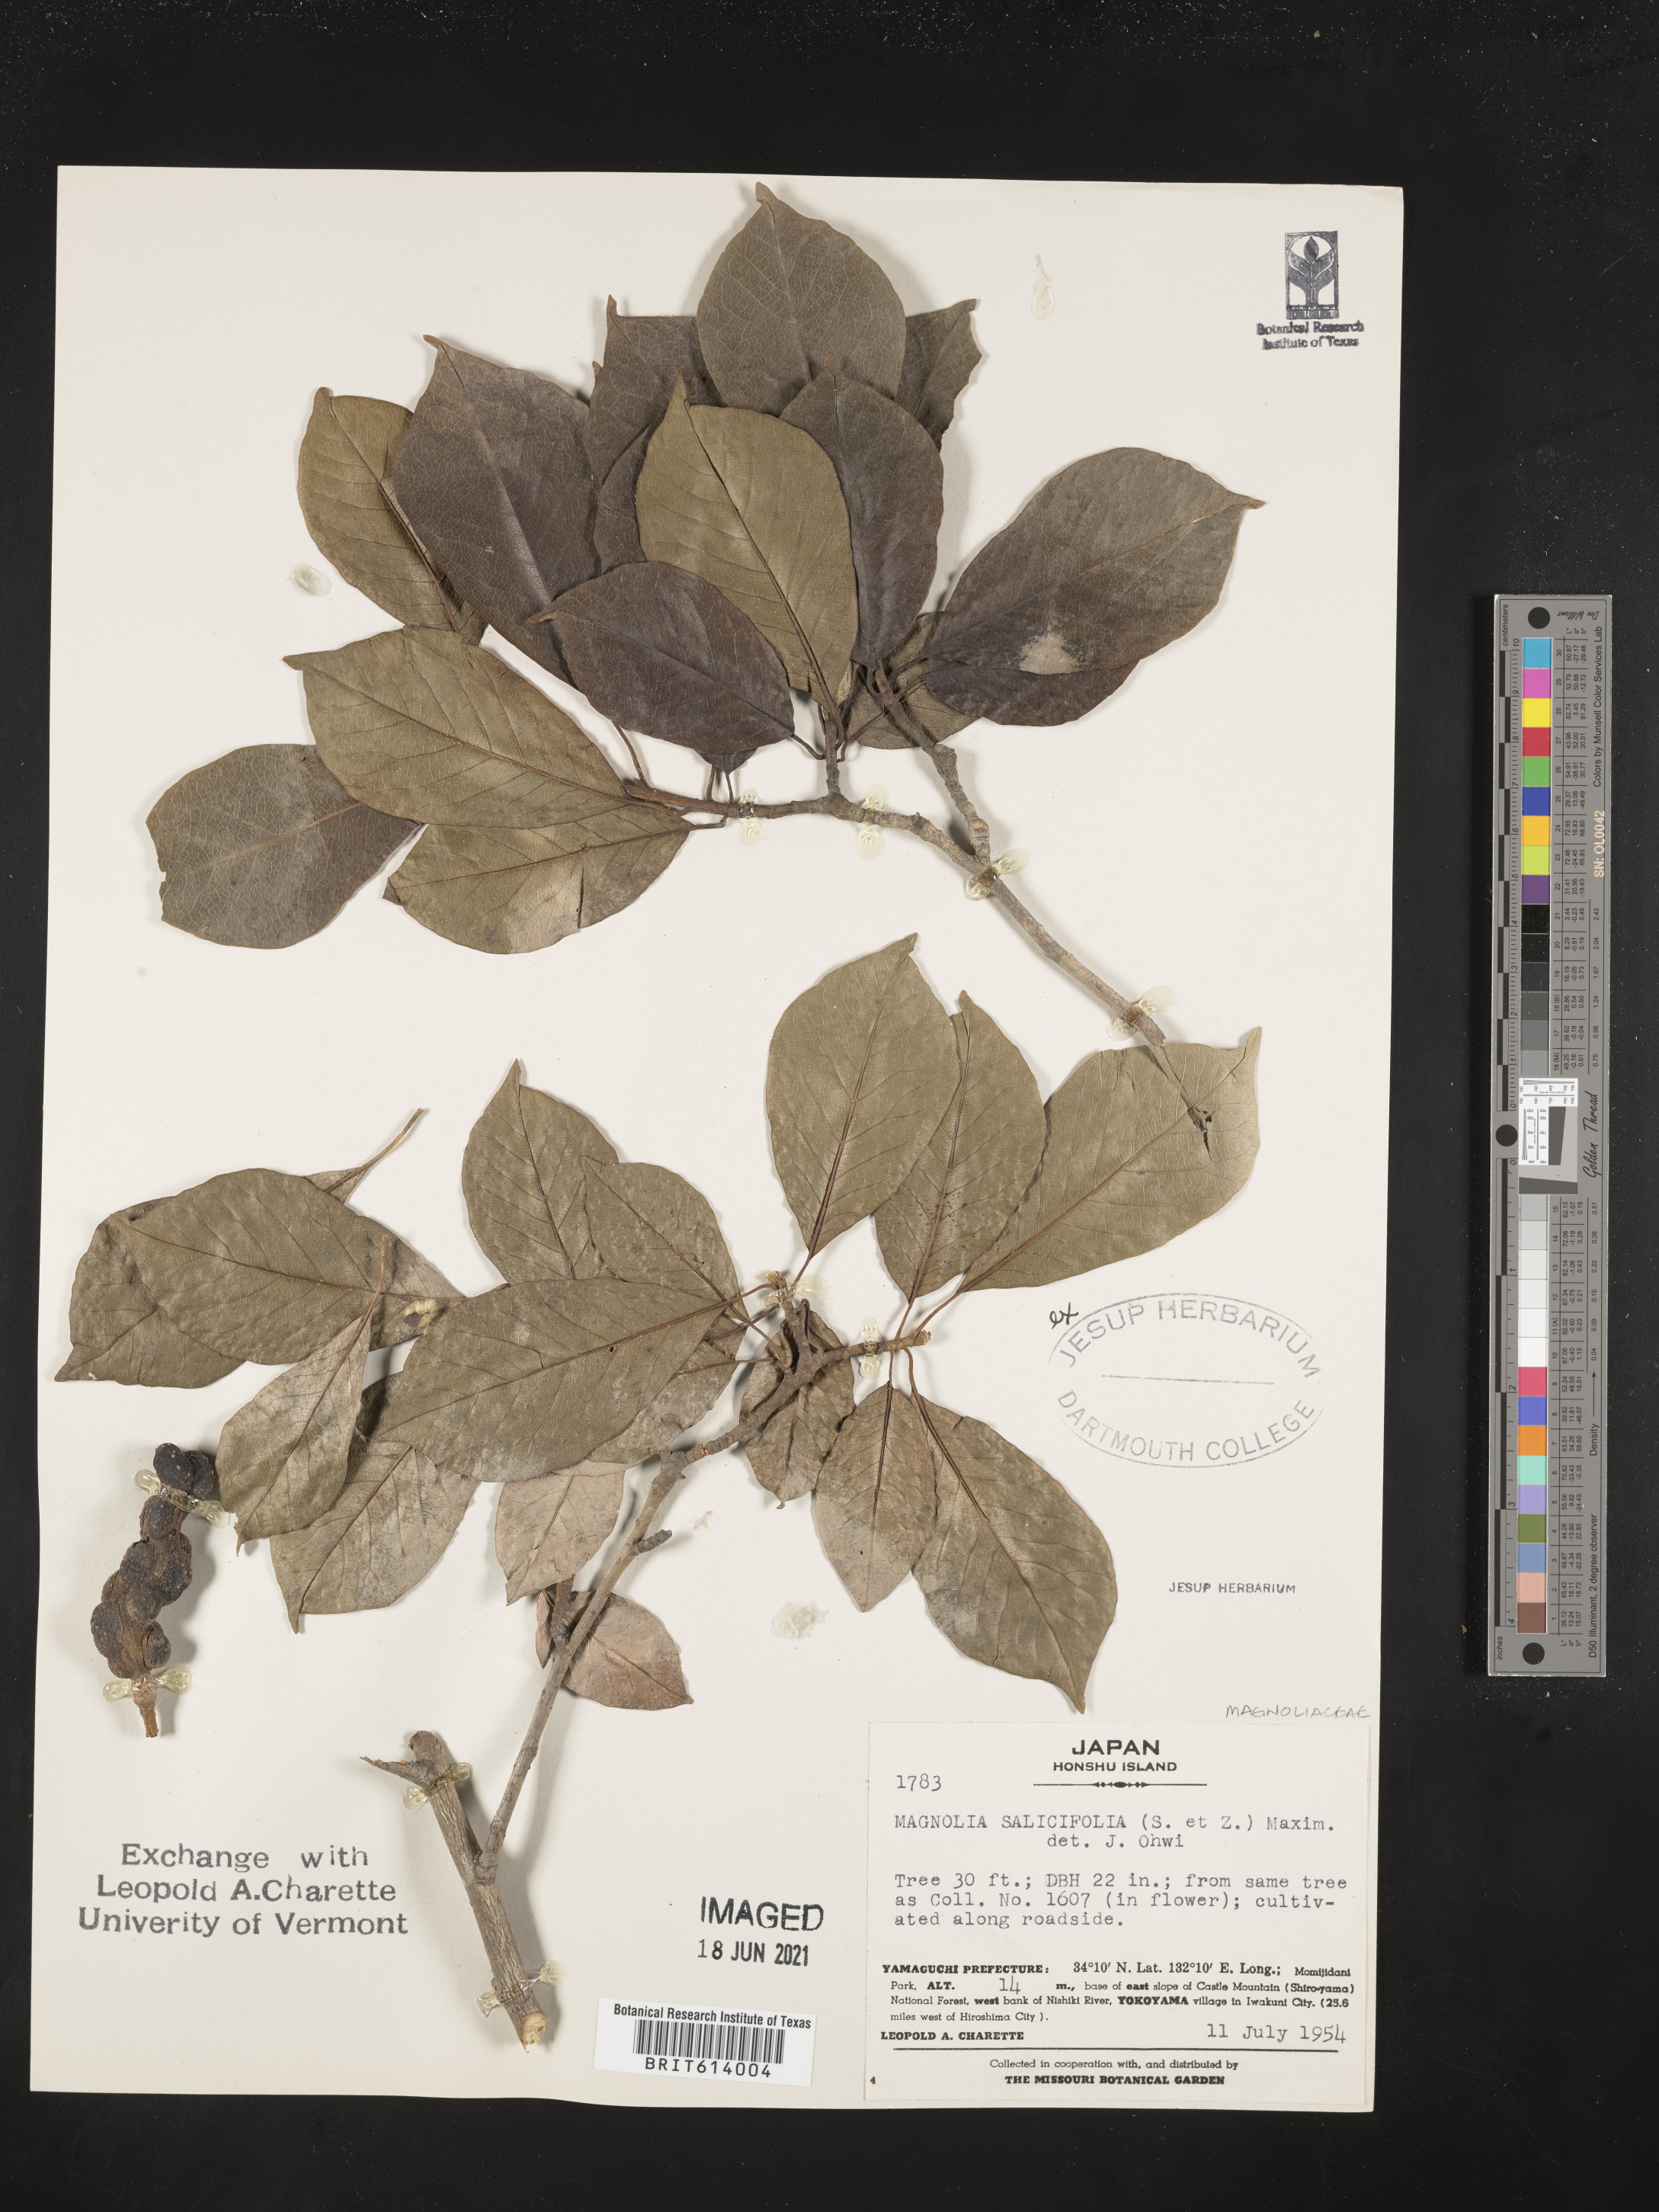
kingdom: Plantae
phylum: Tracheophyta
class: Magnoliopsida
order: Magnoliales
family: Magnoliaceae
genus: Magnolia
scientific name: Magnolia salicifolia
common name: Anise magnolia
